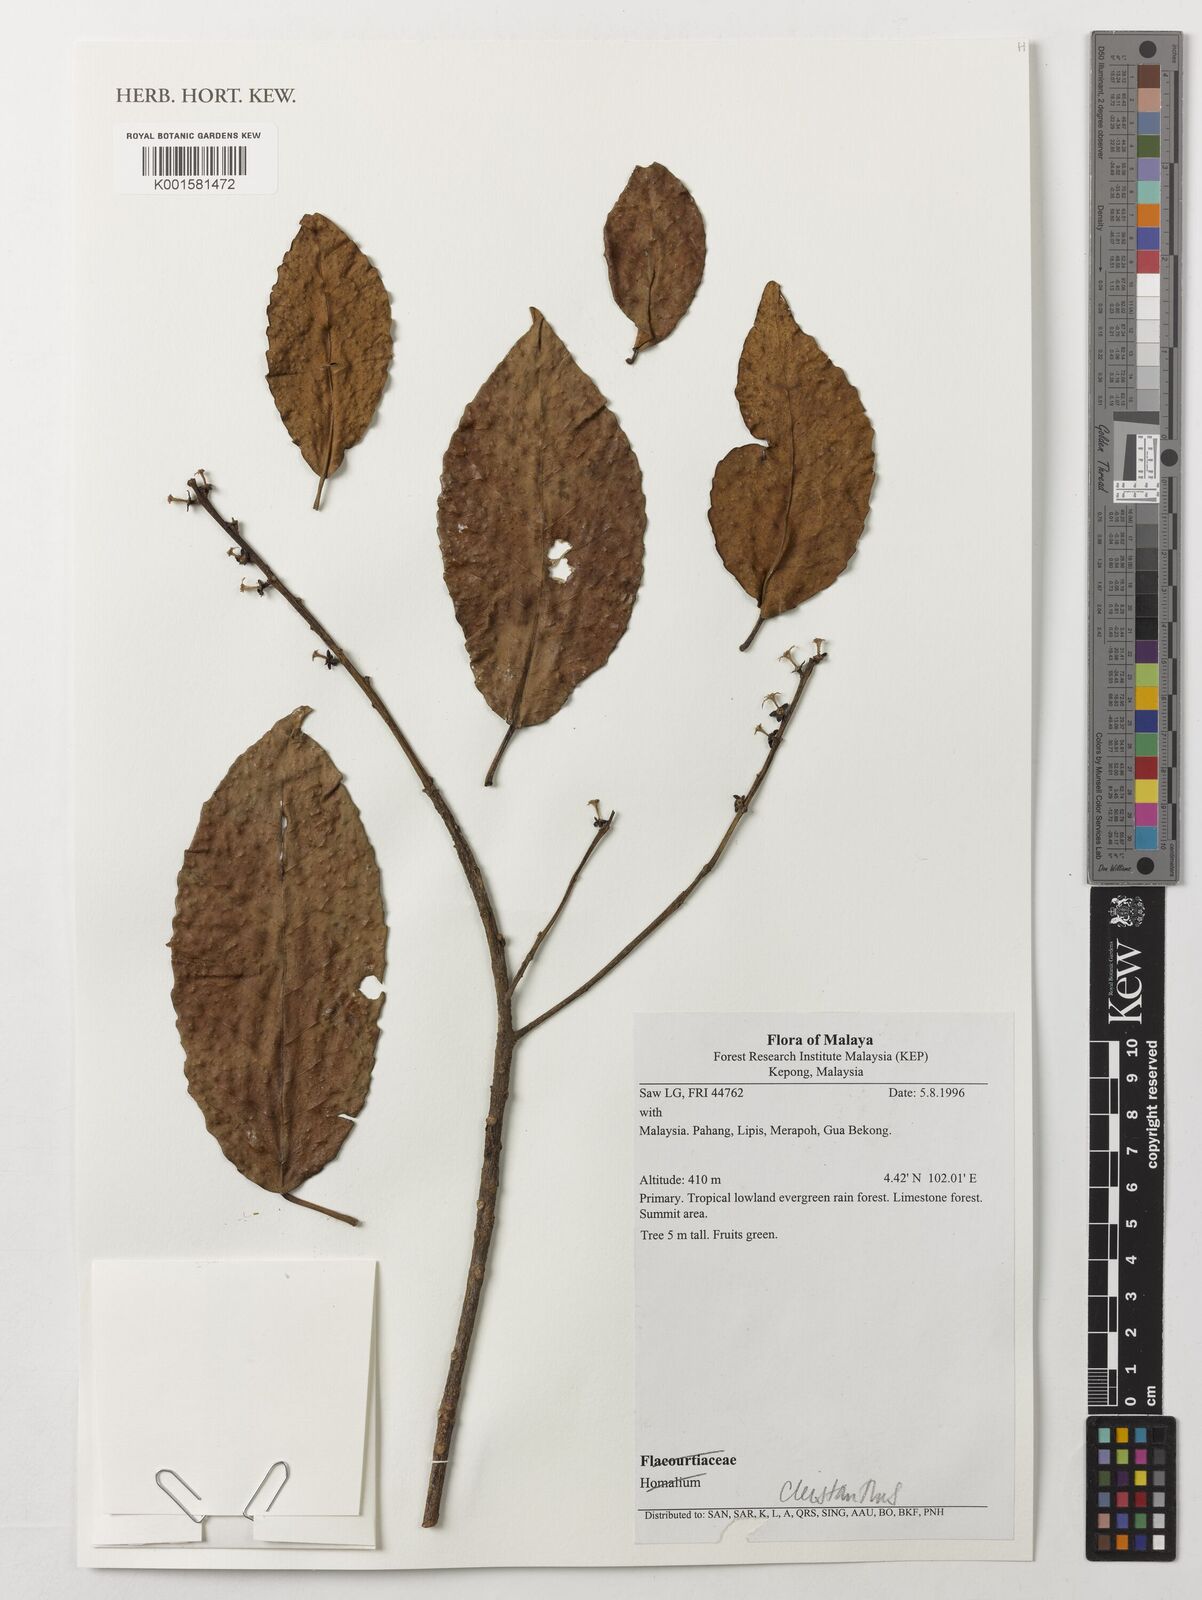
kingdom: Plantae
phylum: Tracheophyta
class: Magnoliopsida
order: Malpighiales
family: Phyllanthaceae
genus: Cleistanthus
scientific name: Cleistanthus
